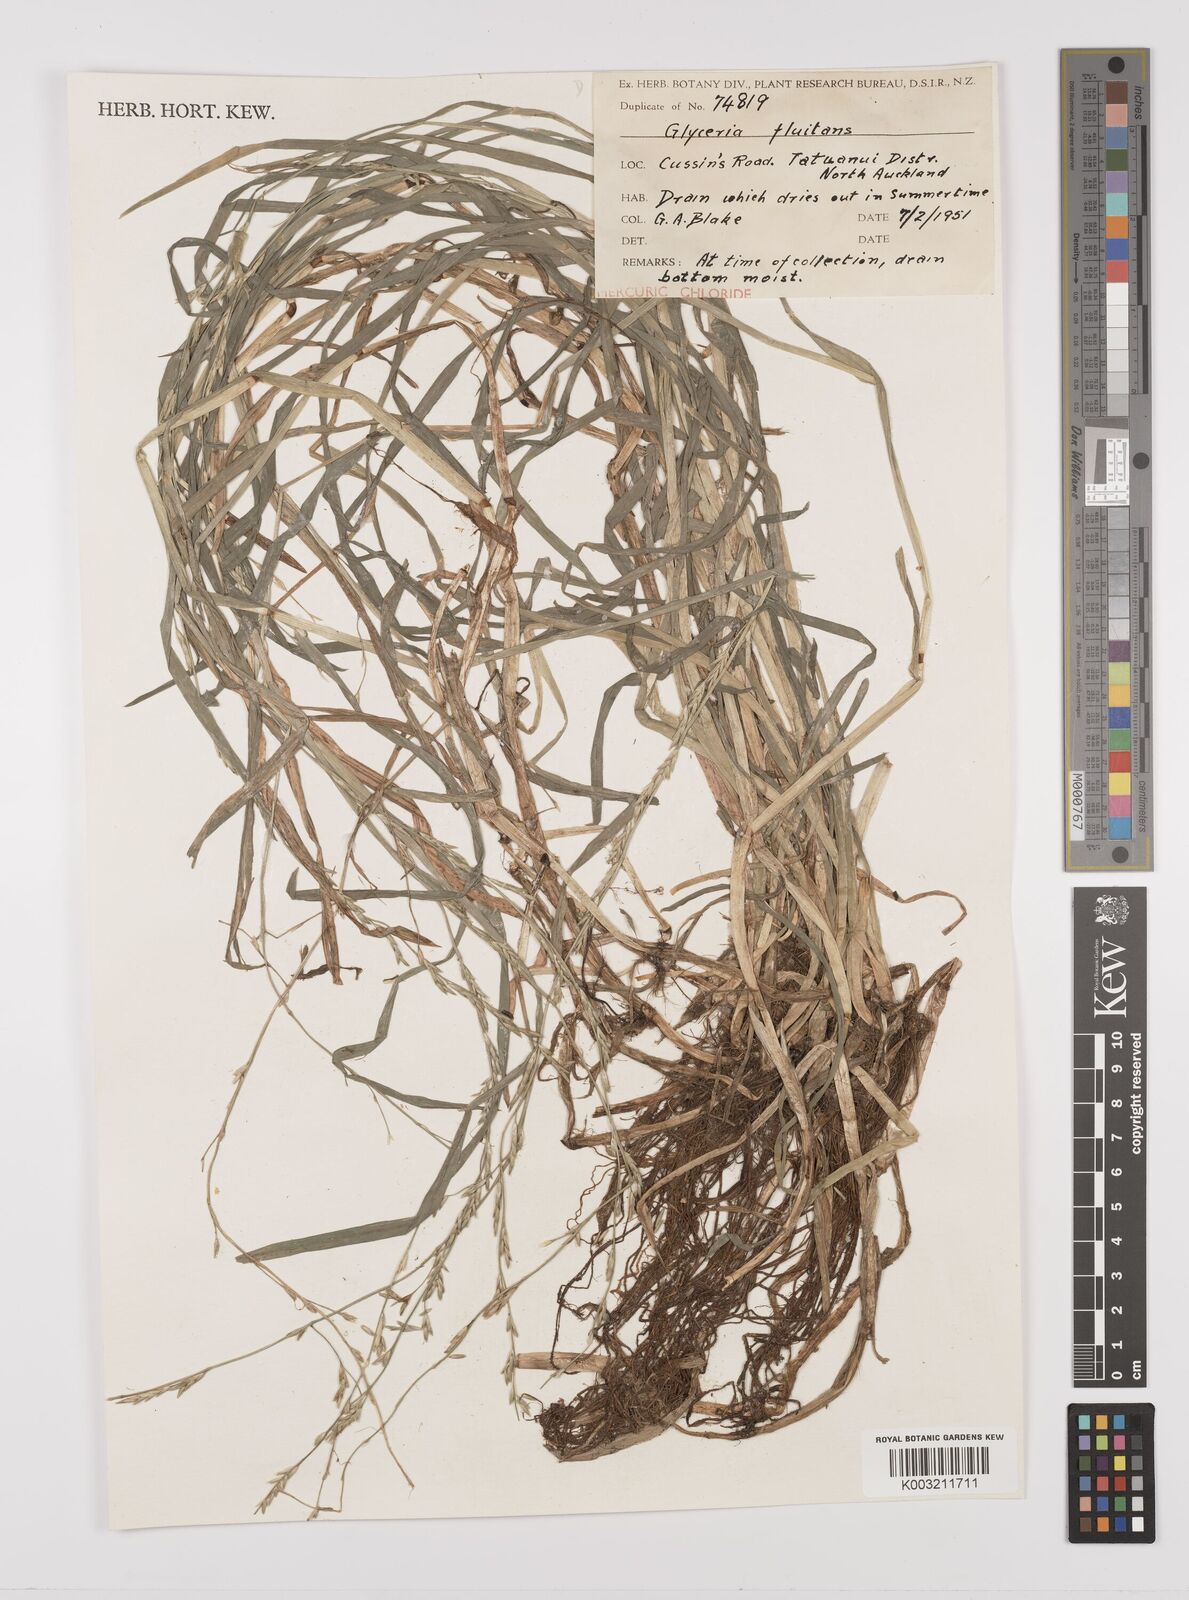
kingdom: Plantae
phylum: Tracheophyta
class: Liliopsida
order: Poales
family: Poaceae
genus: Glyceria
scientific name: Glyceria fluitans
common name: Floating sweet-grass
